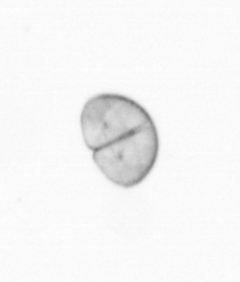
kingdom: Chromista
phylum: Ochrophyta
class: Bacillariophyceae
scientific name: Bacillariophyceae
